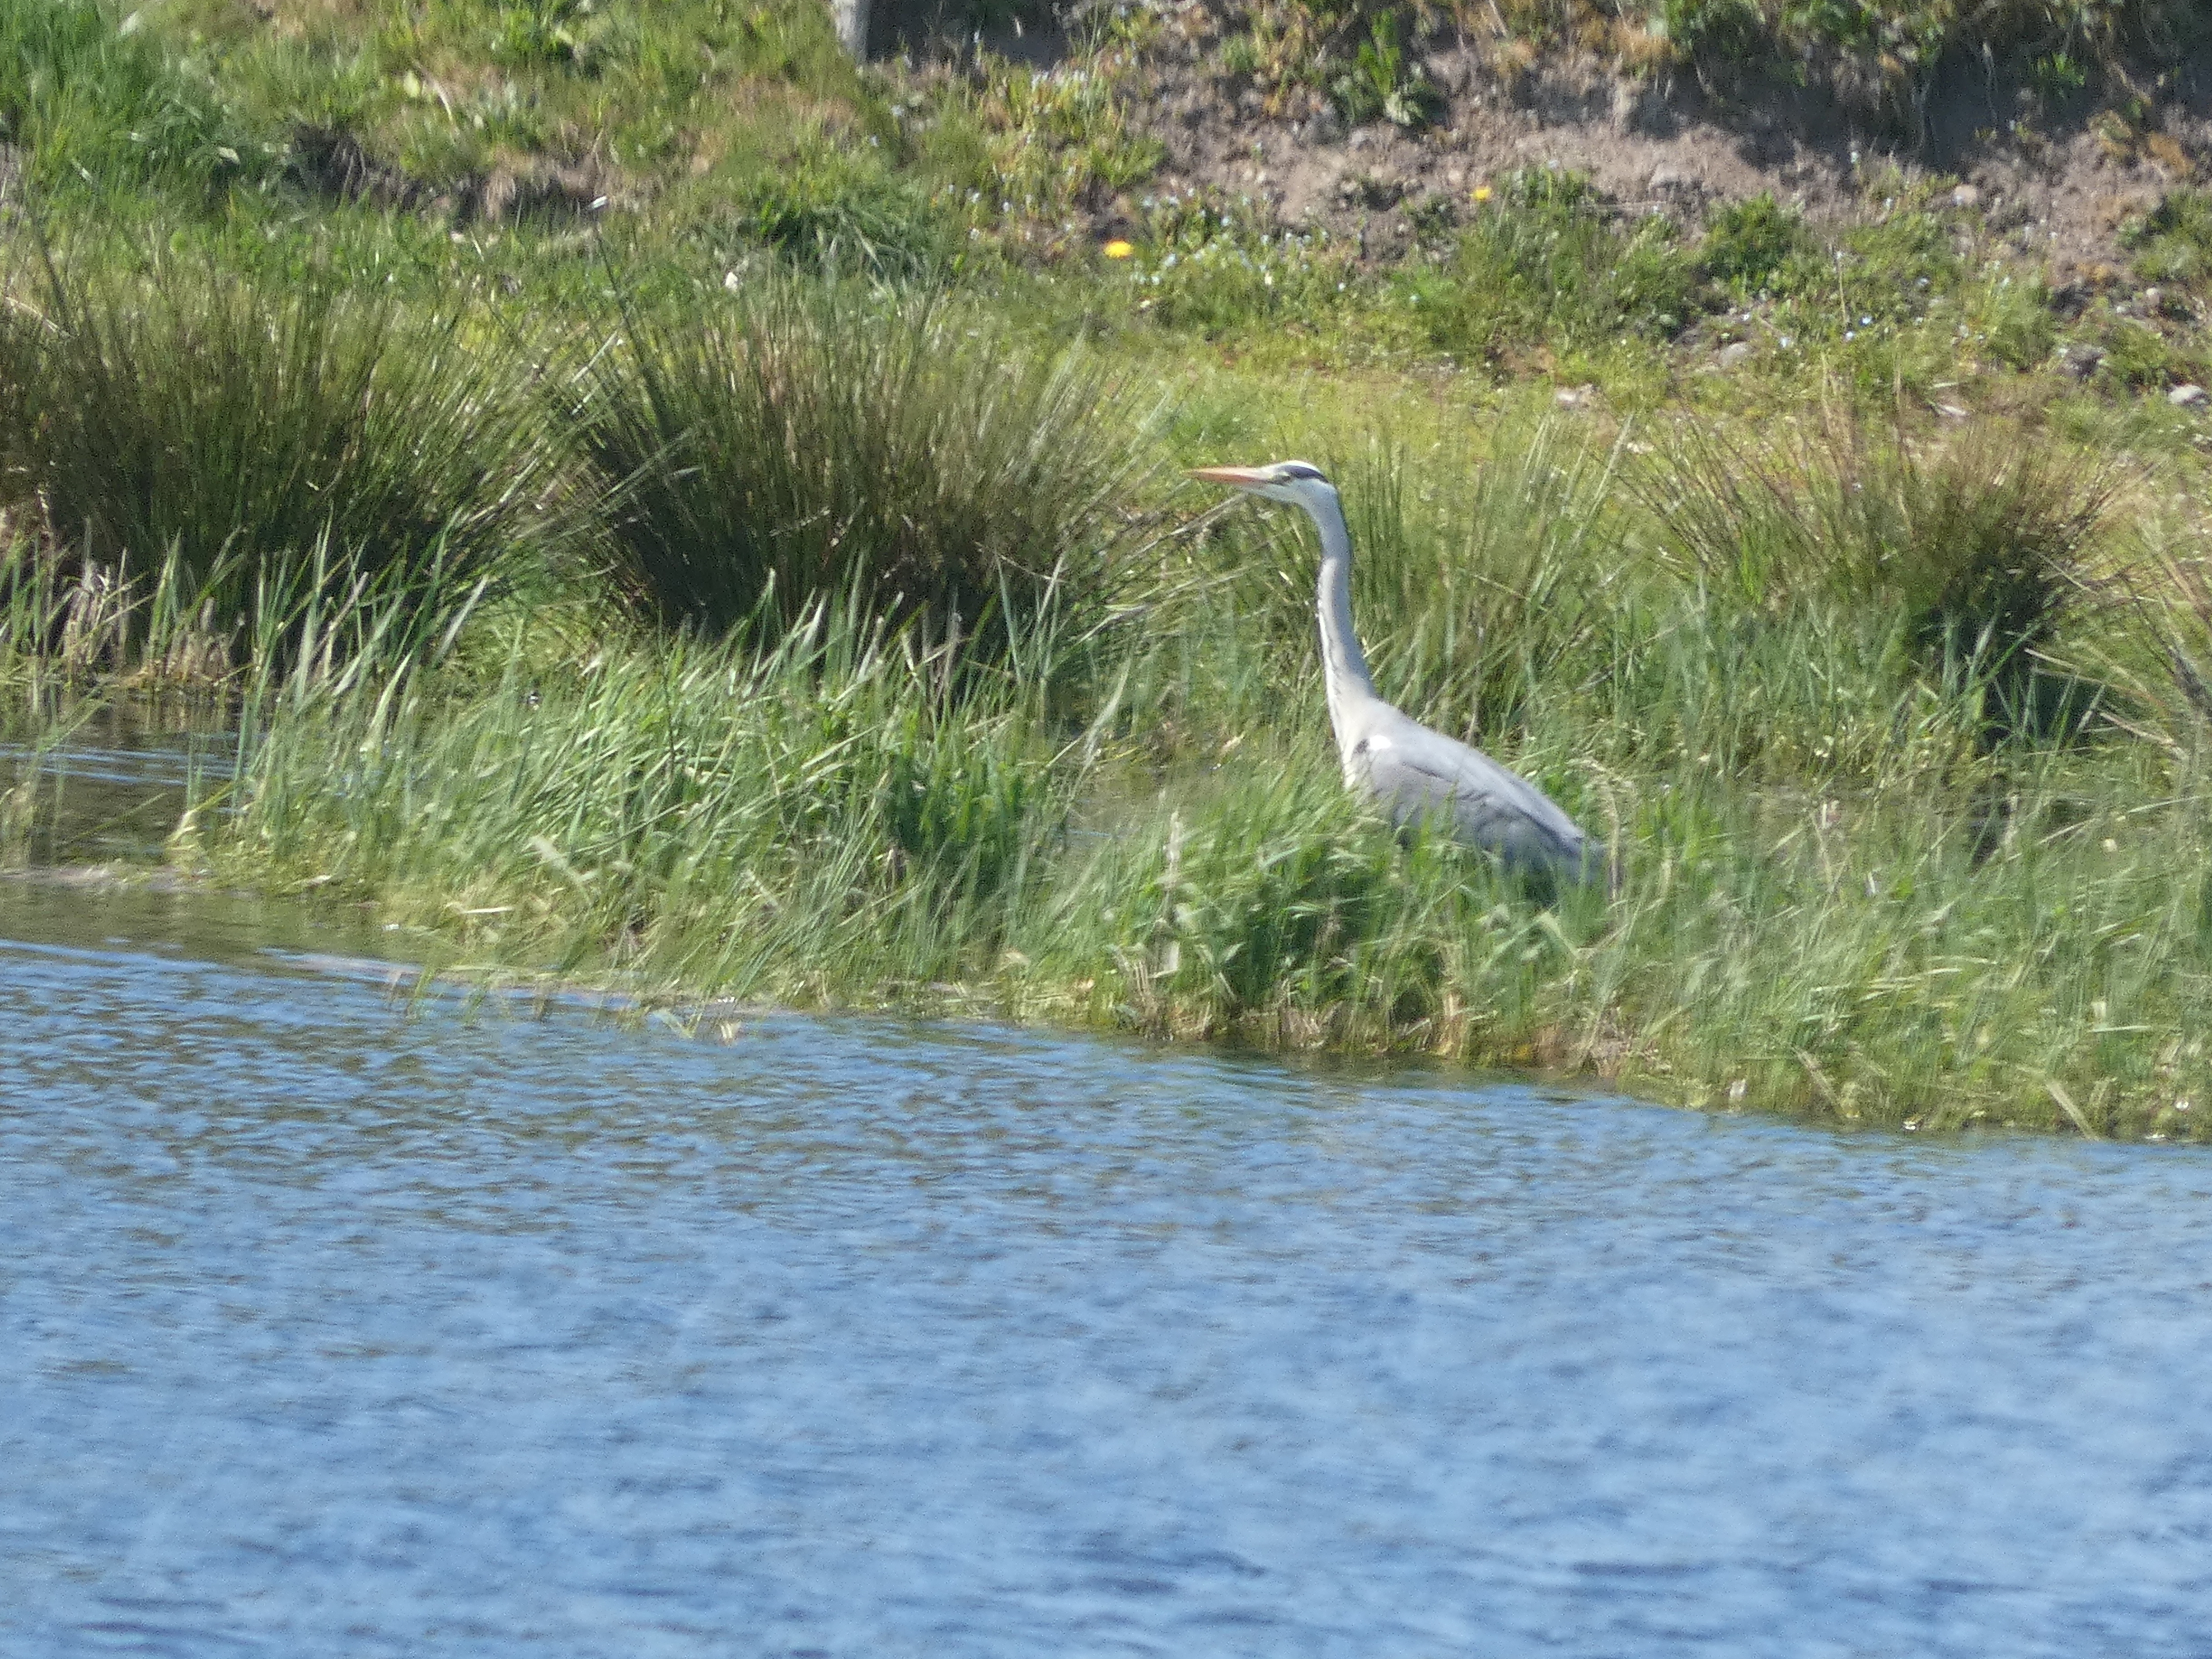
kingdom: Animalia
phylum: Chordata
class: Aves
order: Pelecaniformes
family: Ardeidae
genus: Ardea
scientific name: Ardea cinerea
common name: Fiskehejre
